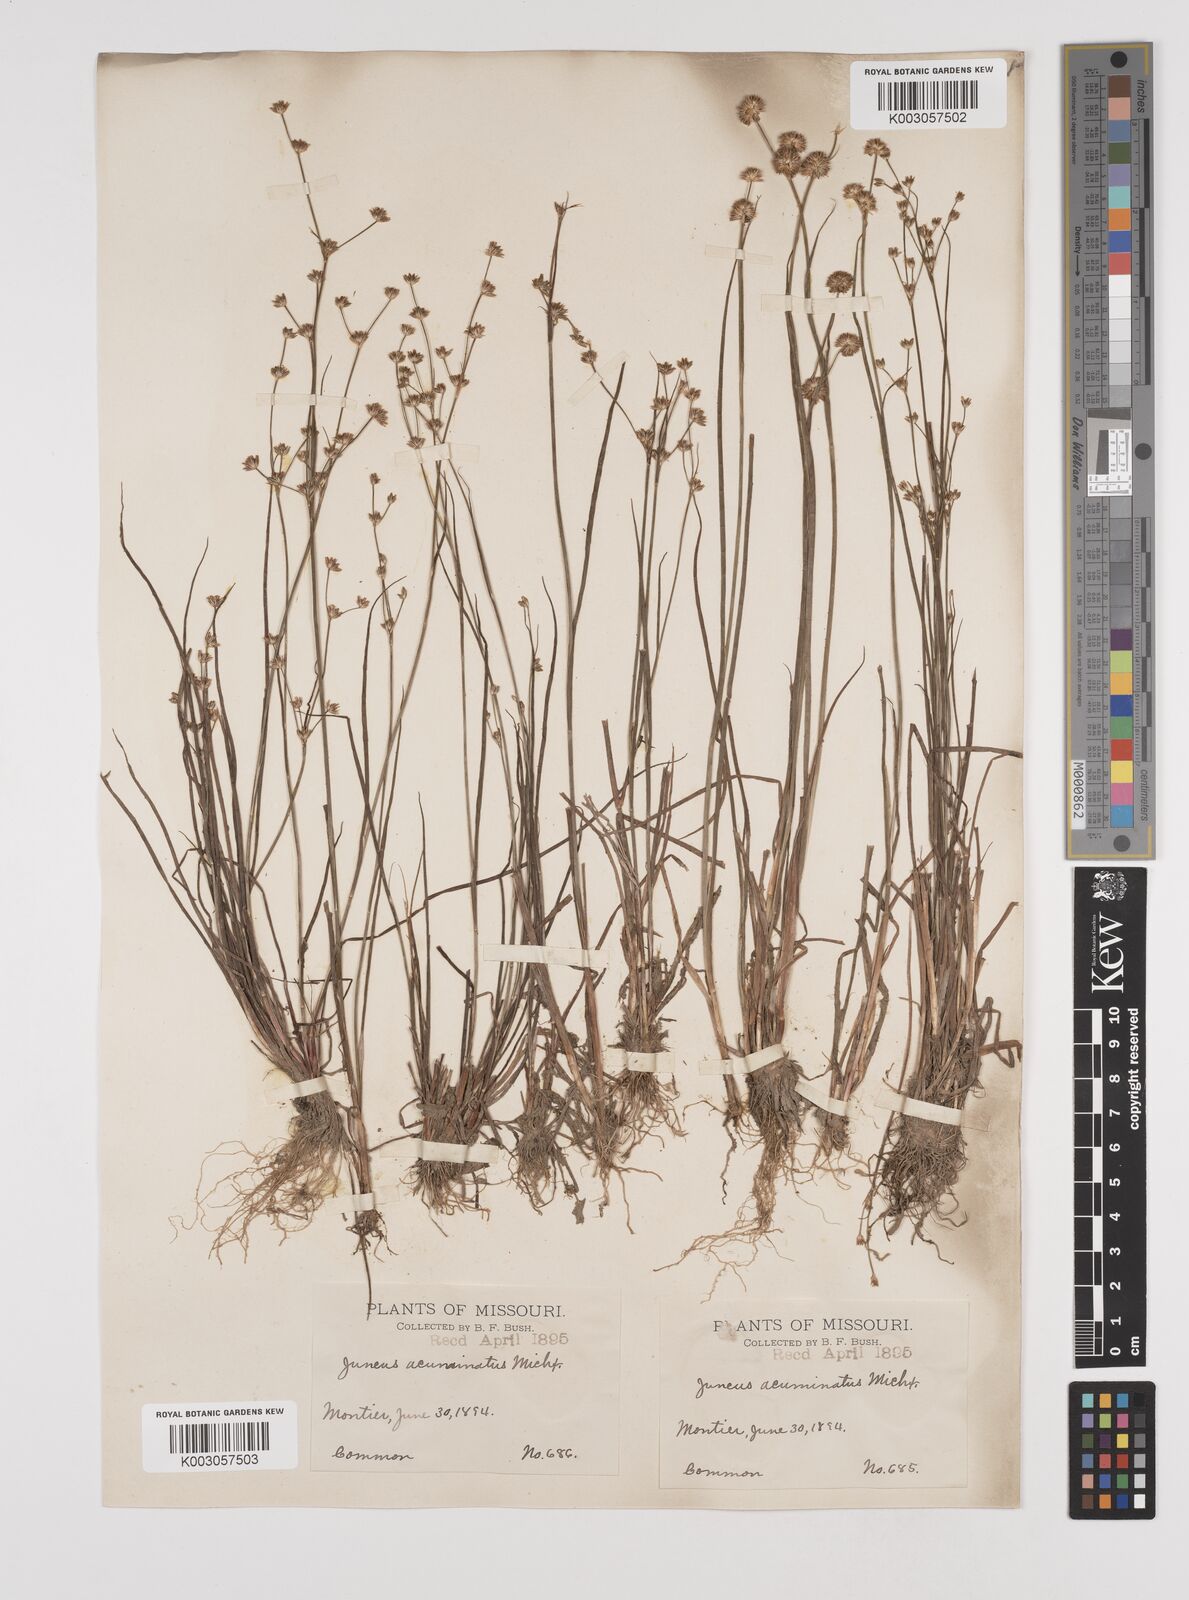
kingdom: Plantae
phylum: Tracheophyta
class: Liliopsida
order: Poales
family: Juncaceae
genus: Juncus
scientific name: Juncus debilis
